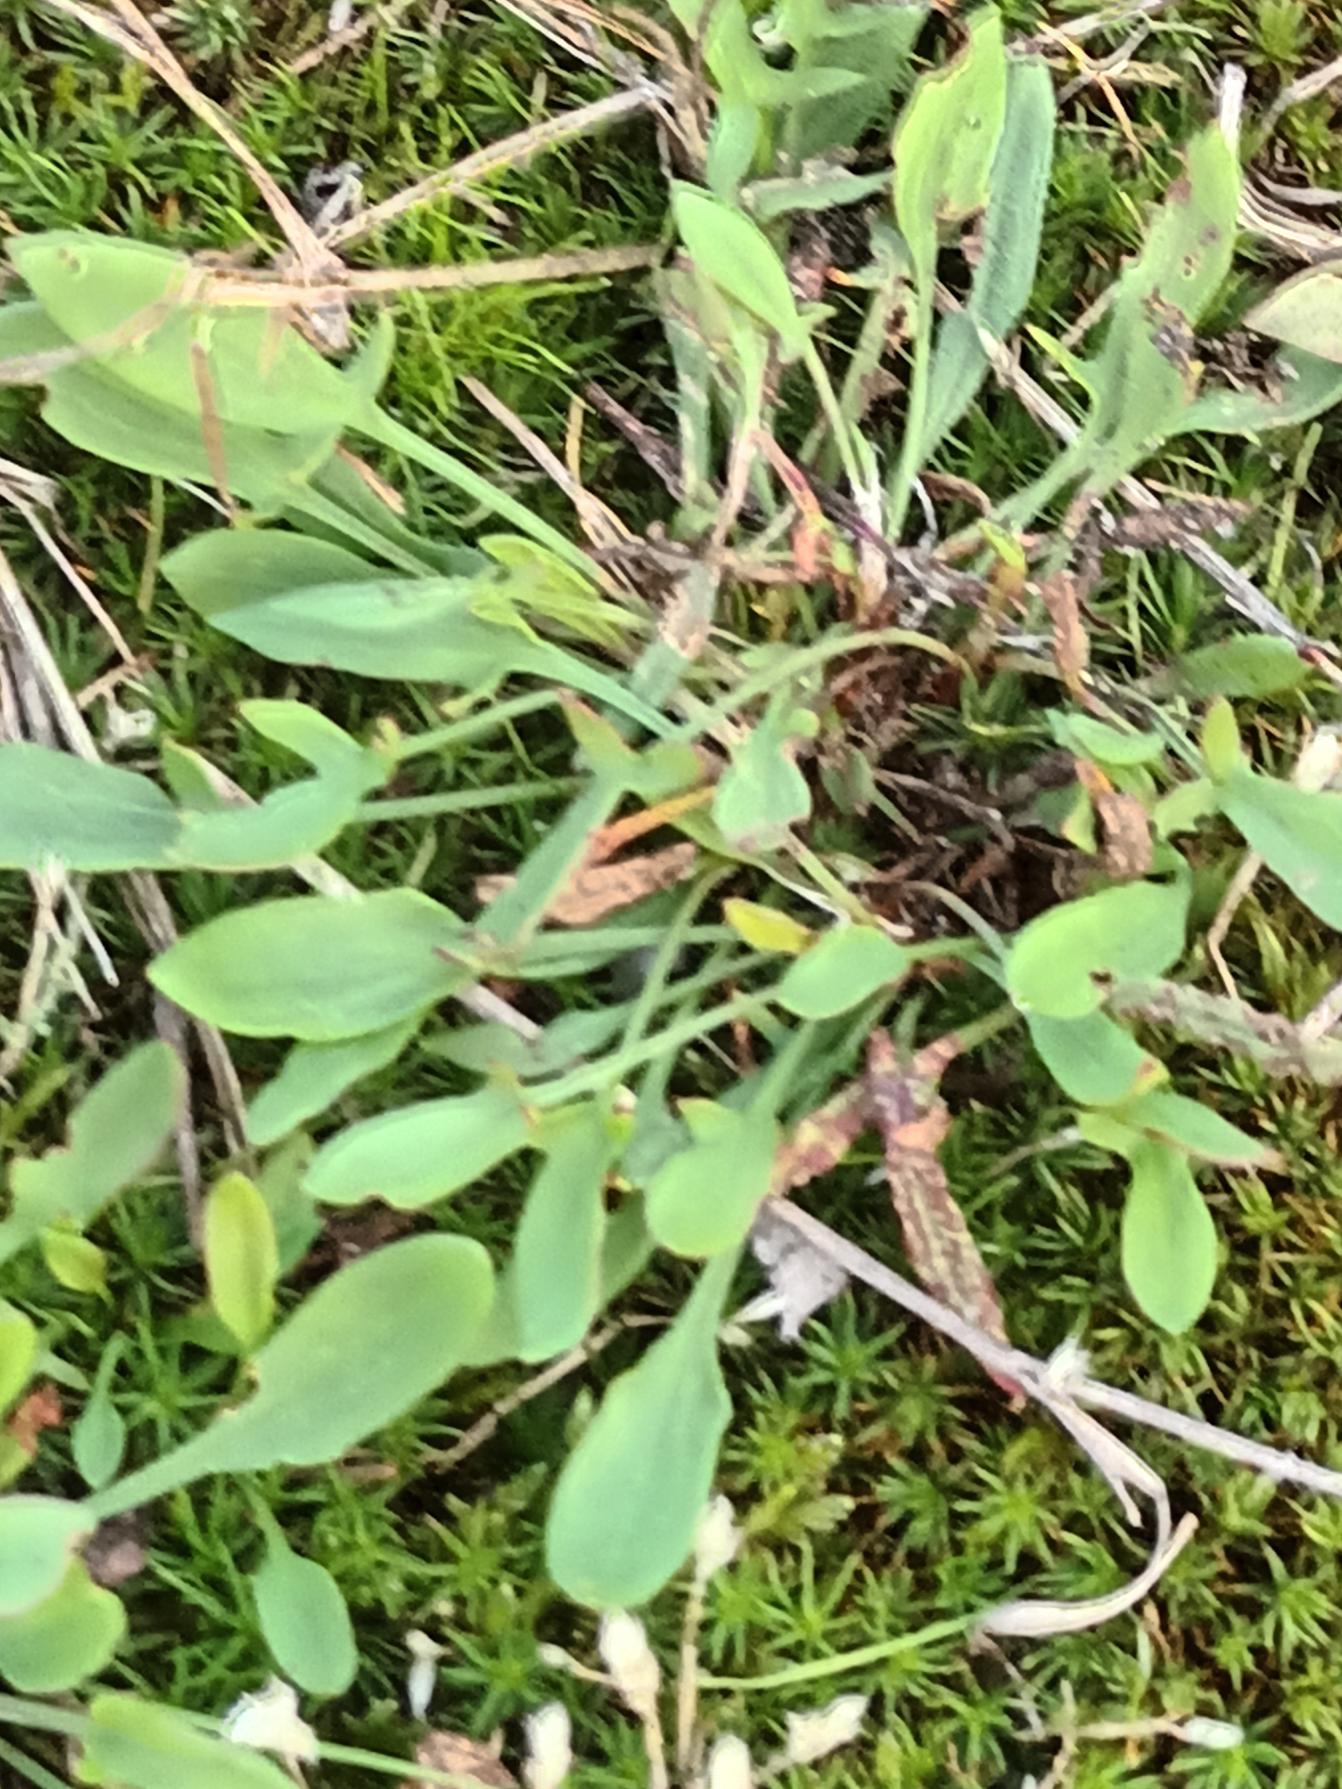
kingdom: Plantae
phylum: Tracheophyta
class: Magnoliopsida
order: Caryophyllales
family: Polygonaceae
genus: Rumex
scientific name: Rumex acetosella
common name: Rødknæ
